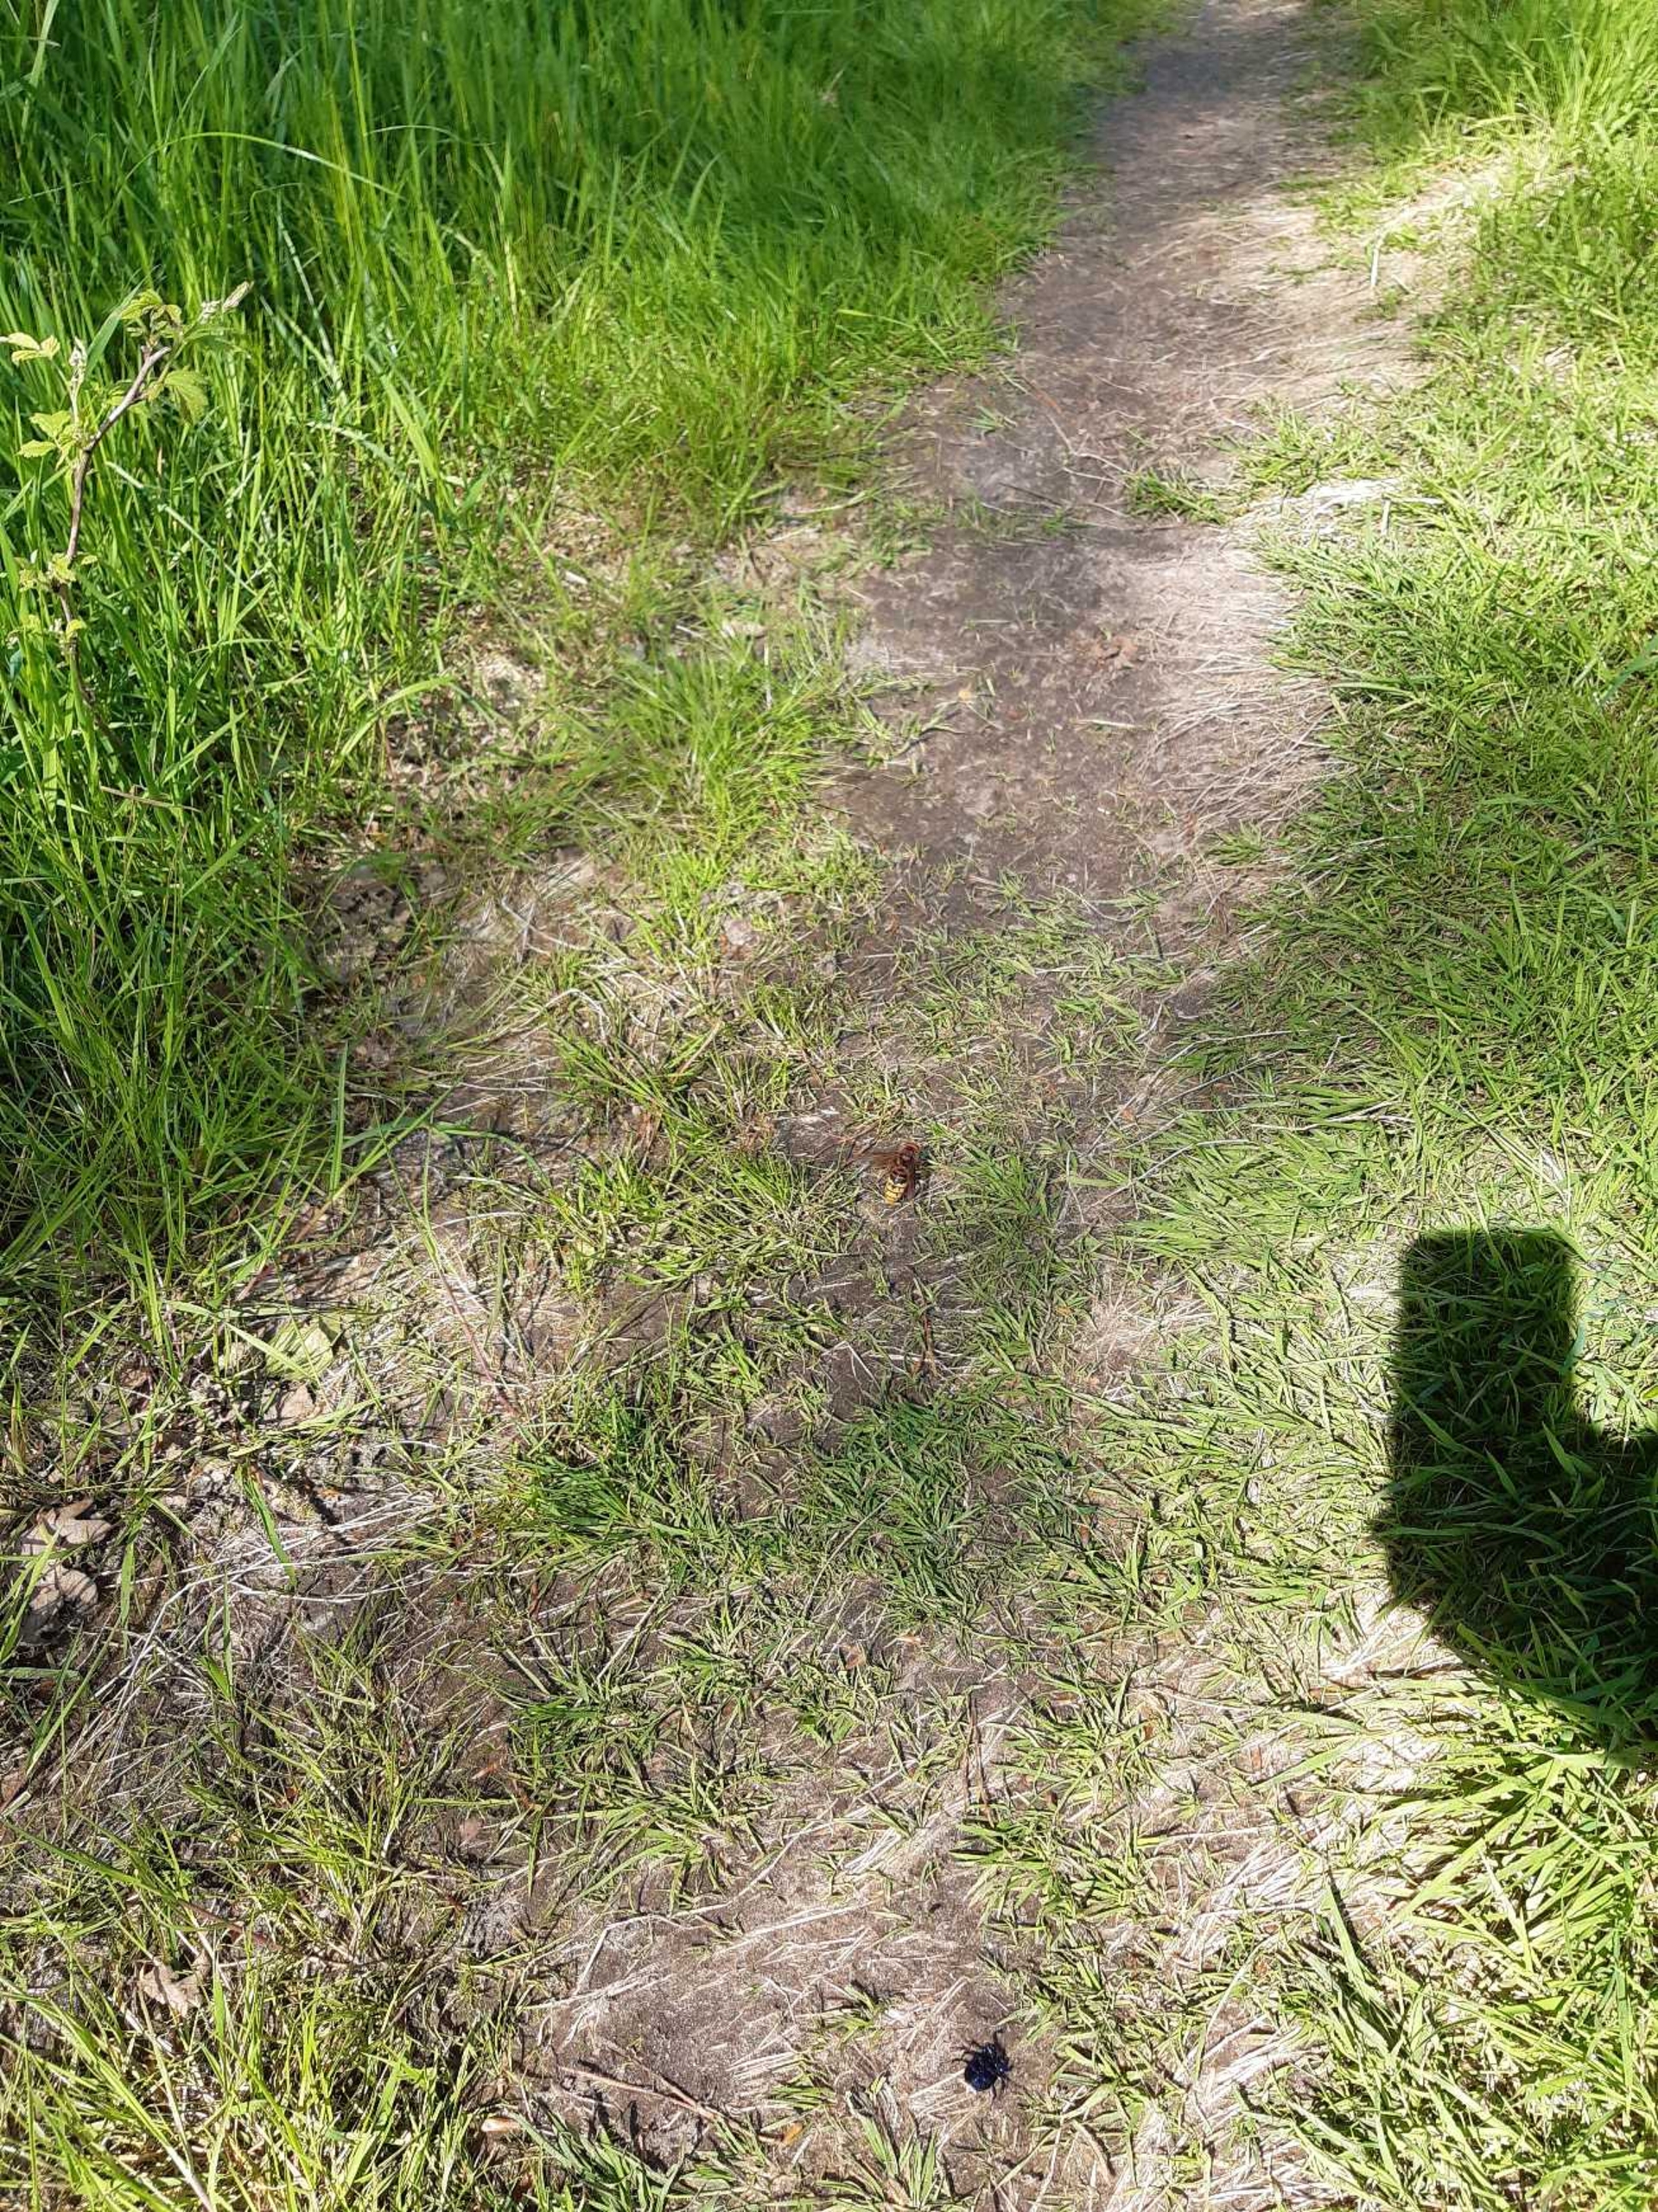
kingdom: Animalia
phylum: Arthropoda
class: Insecta
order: Hymenoptera
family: Vespidae
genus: Vespa
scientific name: Vespa crabro
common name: Stor gedehams
